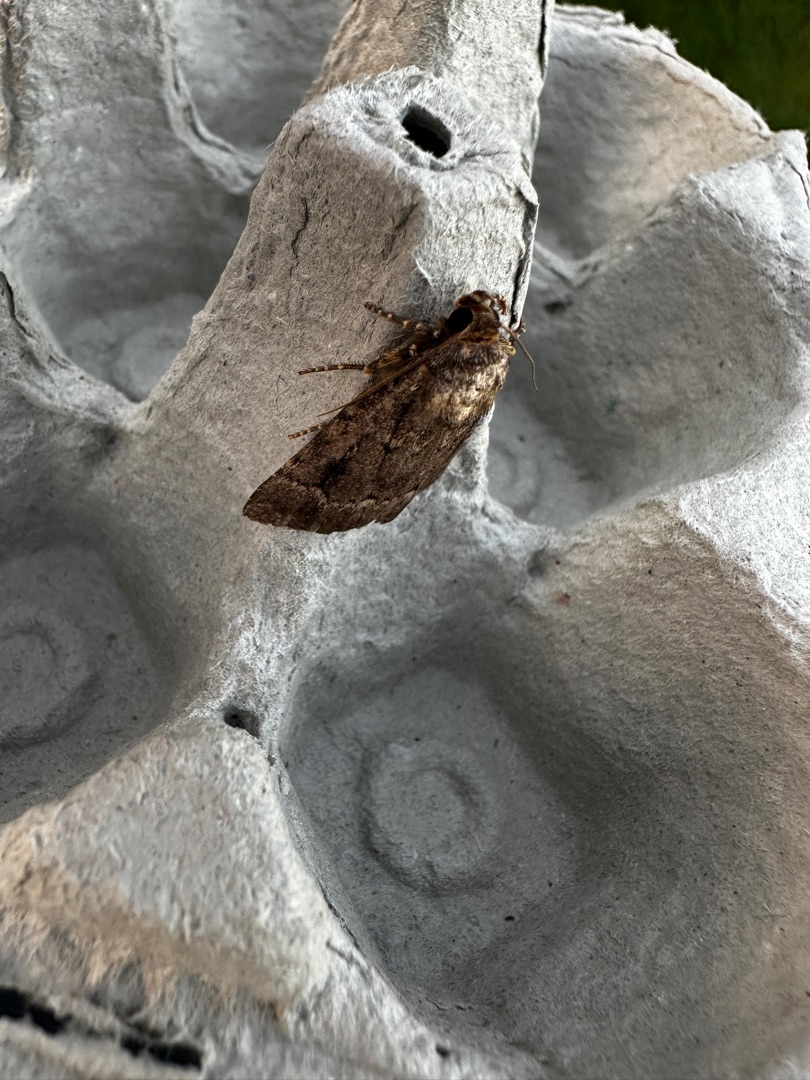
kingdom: Animalia
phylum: Arthropoda
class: Insecta
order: Lepidoptera
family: Noctuidae
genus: Amphipyra
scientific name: Amphipyra pyramidea
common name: Pyramideugle
